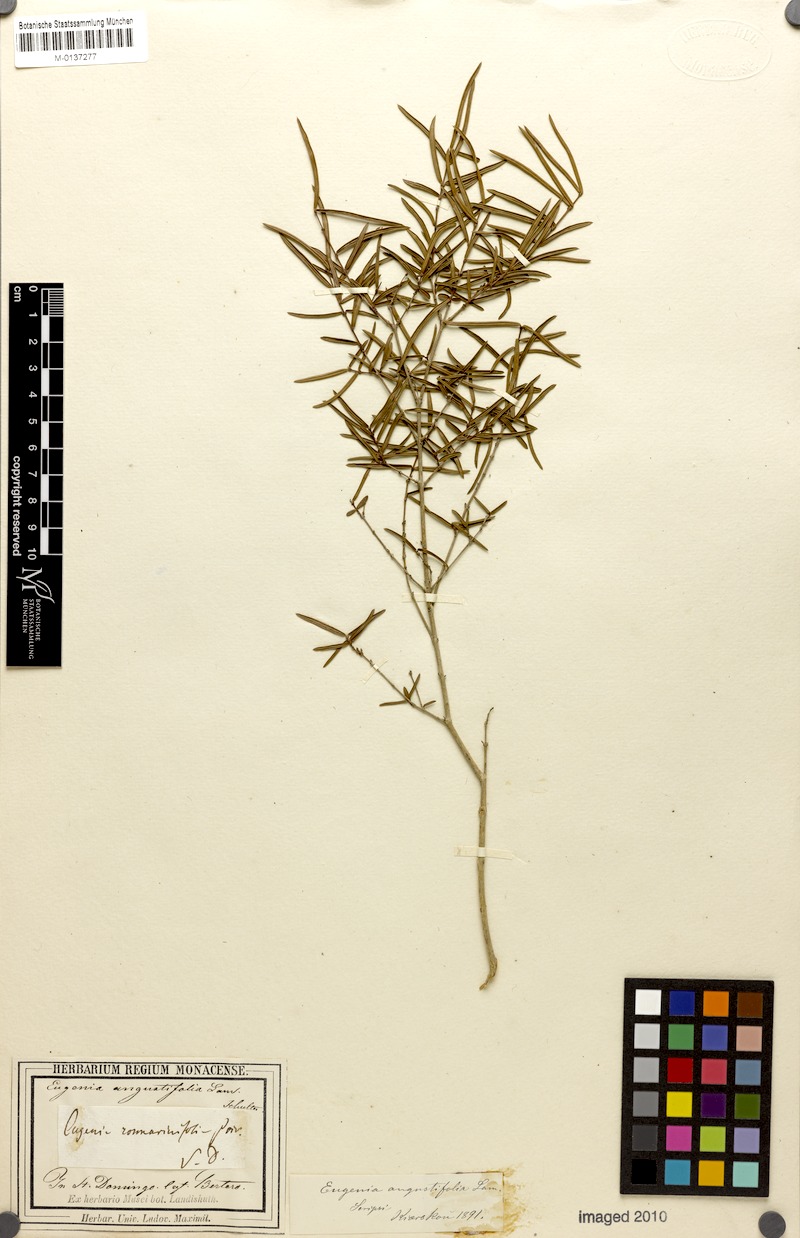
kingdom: Plantae
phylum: Tracheophyta
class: Magnoliopsida
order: Myrtales
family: Myrtaceae
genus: Eugenia
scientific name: Eugenia pomifera
